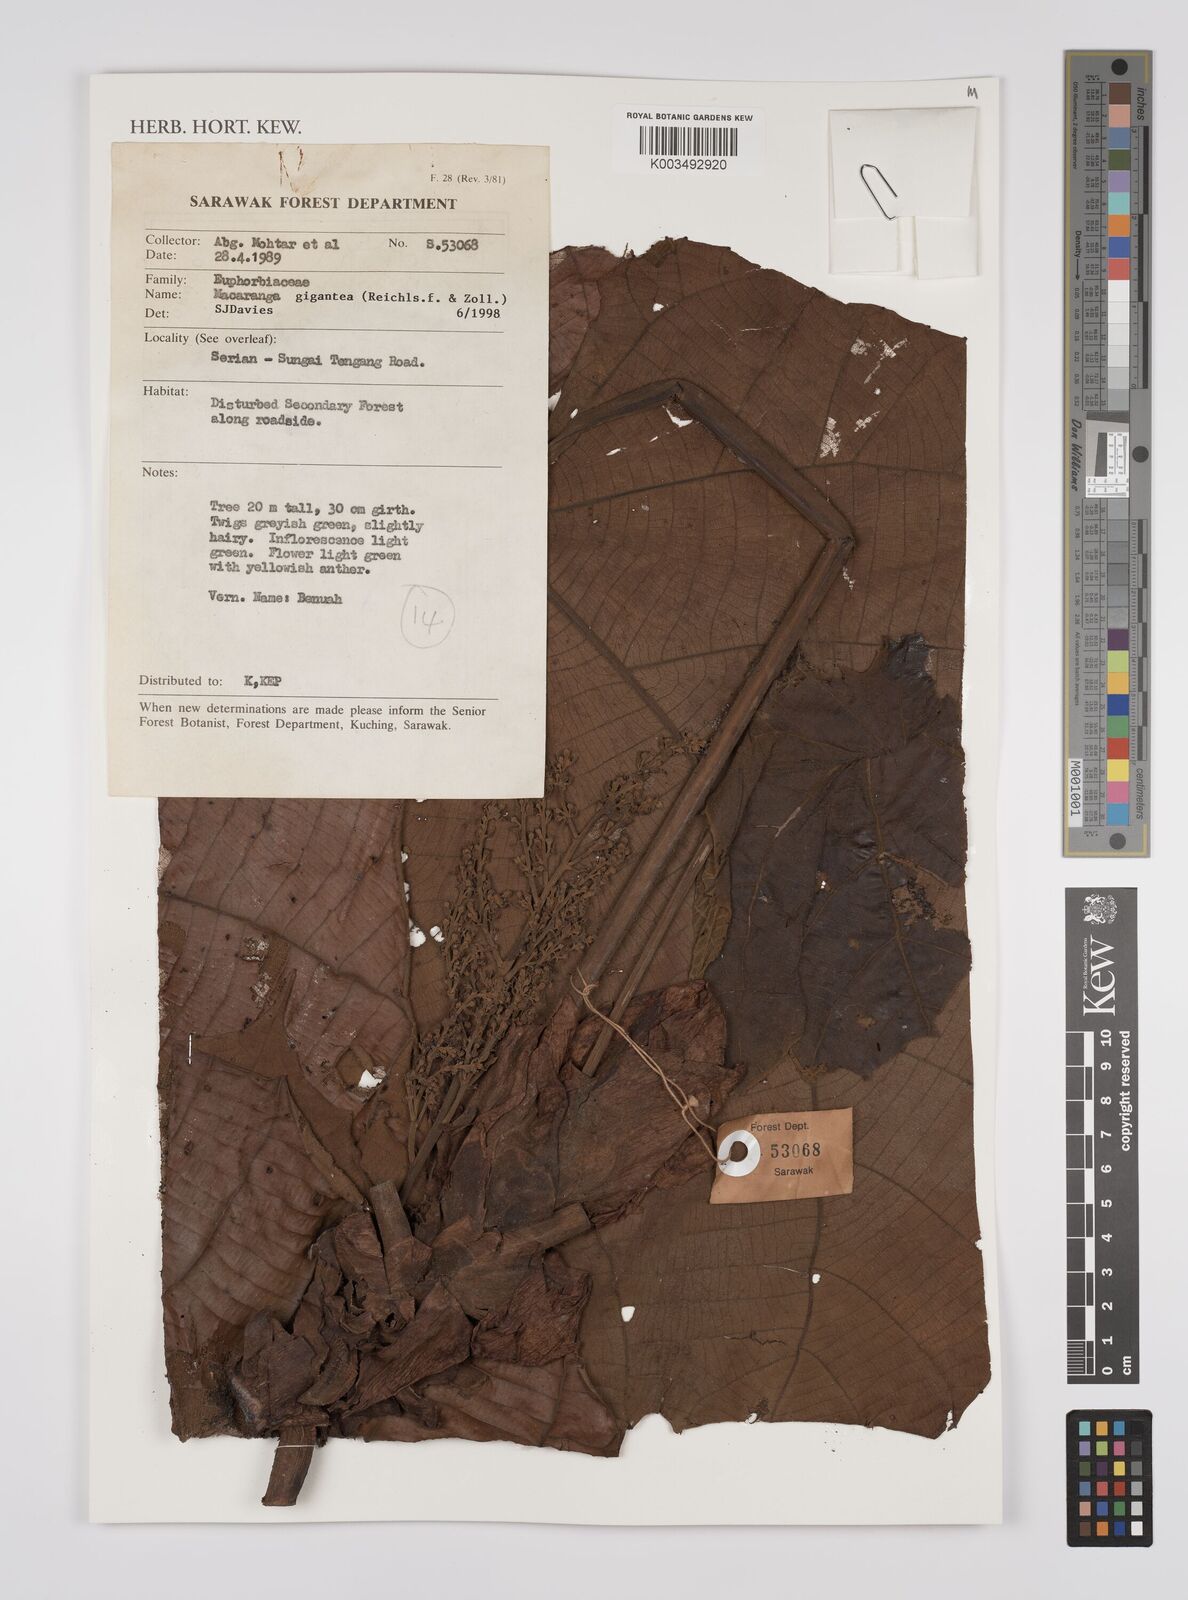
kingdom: Plantae
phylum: Tracheophyta
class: Magnoliopsida
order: Malpighiales
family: Euphorbiaceae
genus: Macaranga
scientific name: Macaranga gigantea
